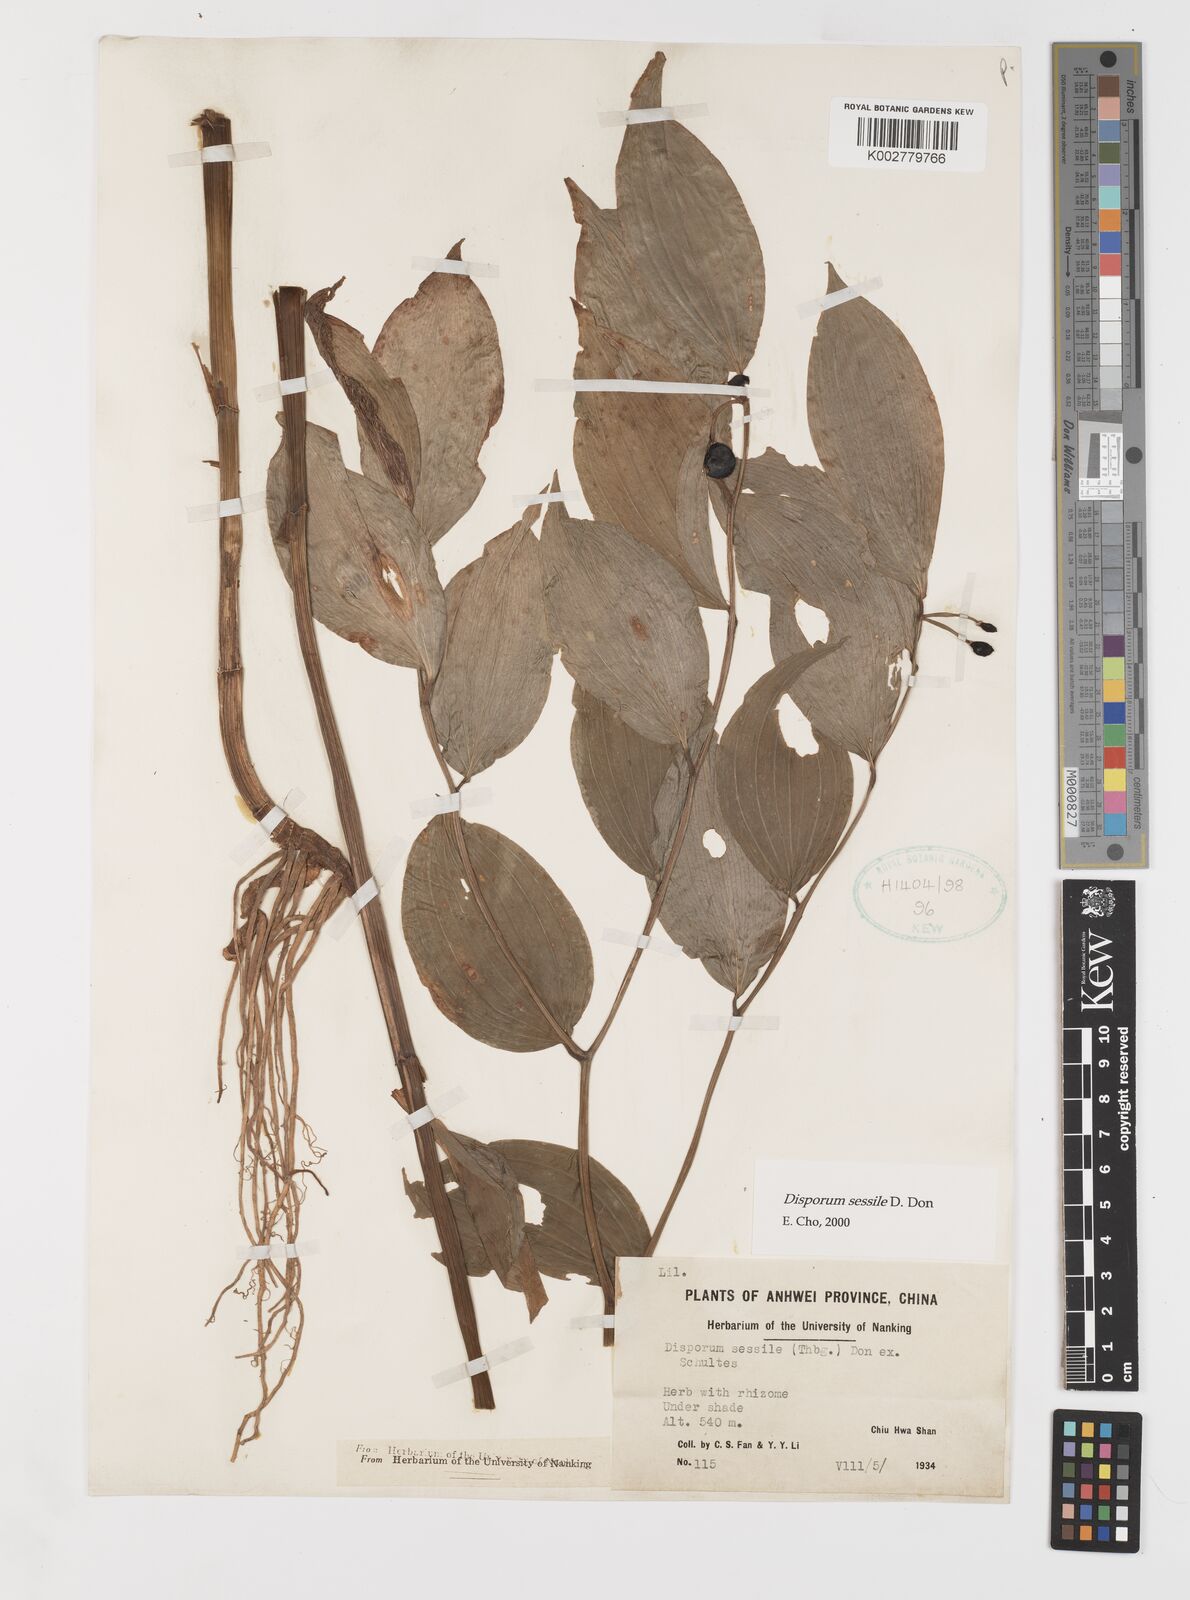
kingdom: Plantae
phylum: Tracheophyta
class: Liliopsida
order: Liliales
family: Colchicaceae
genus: Disporum
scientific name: Disporum sessile
